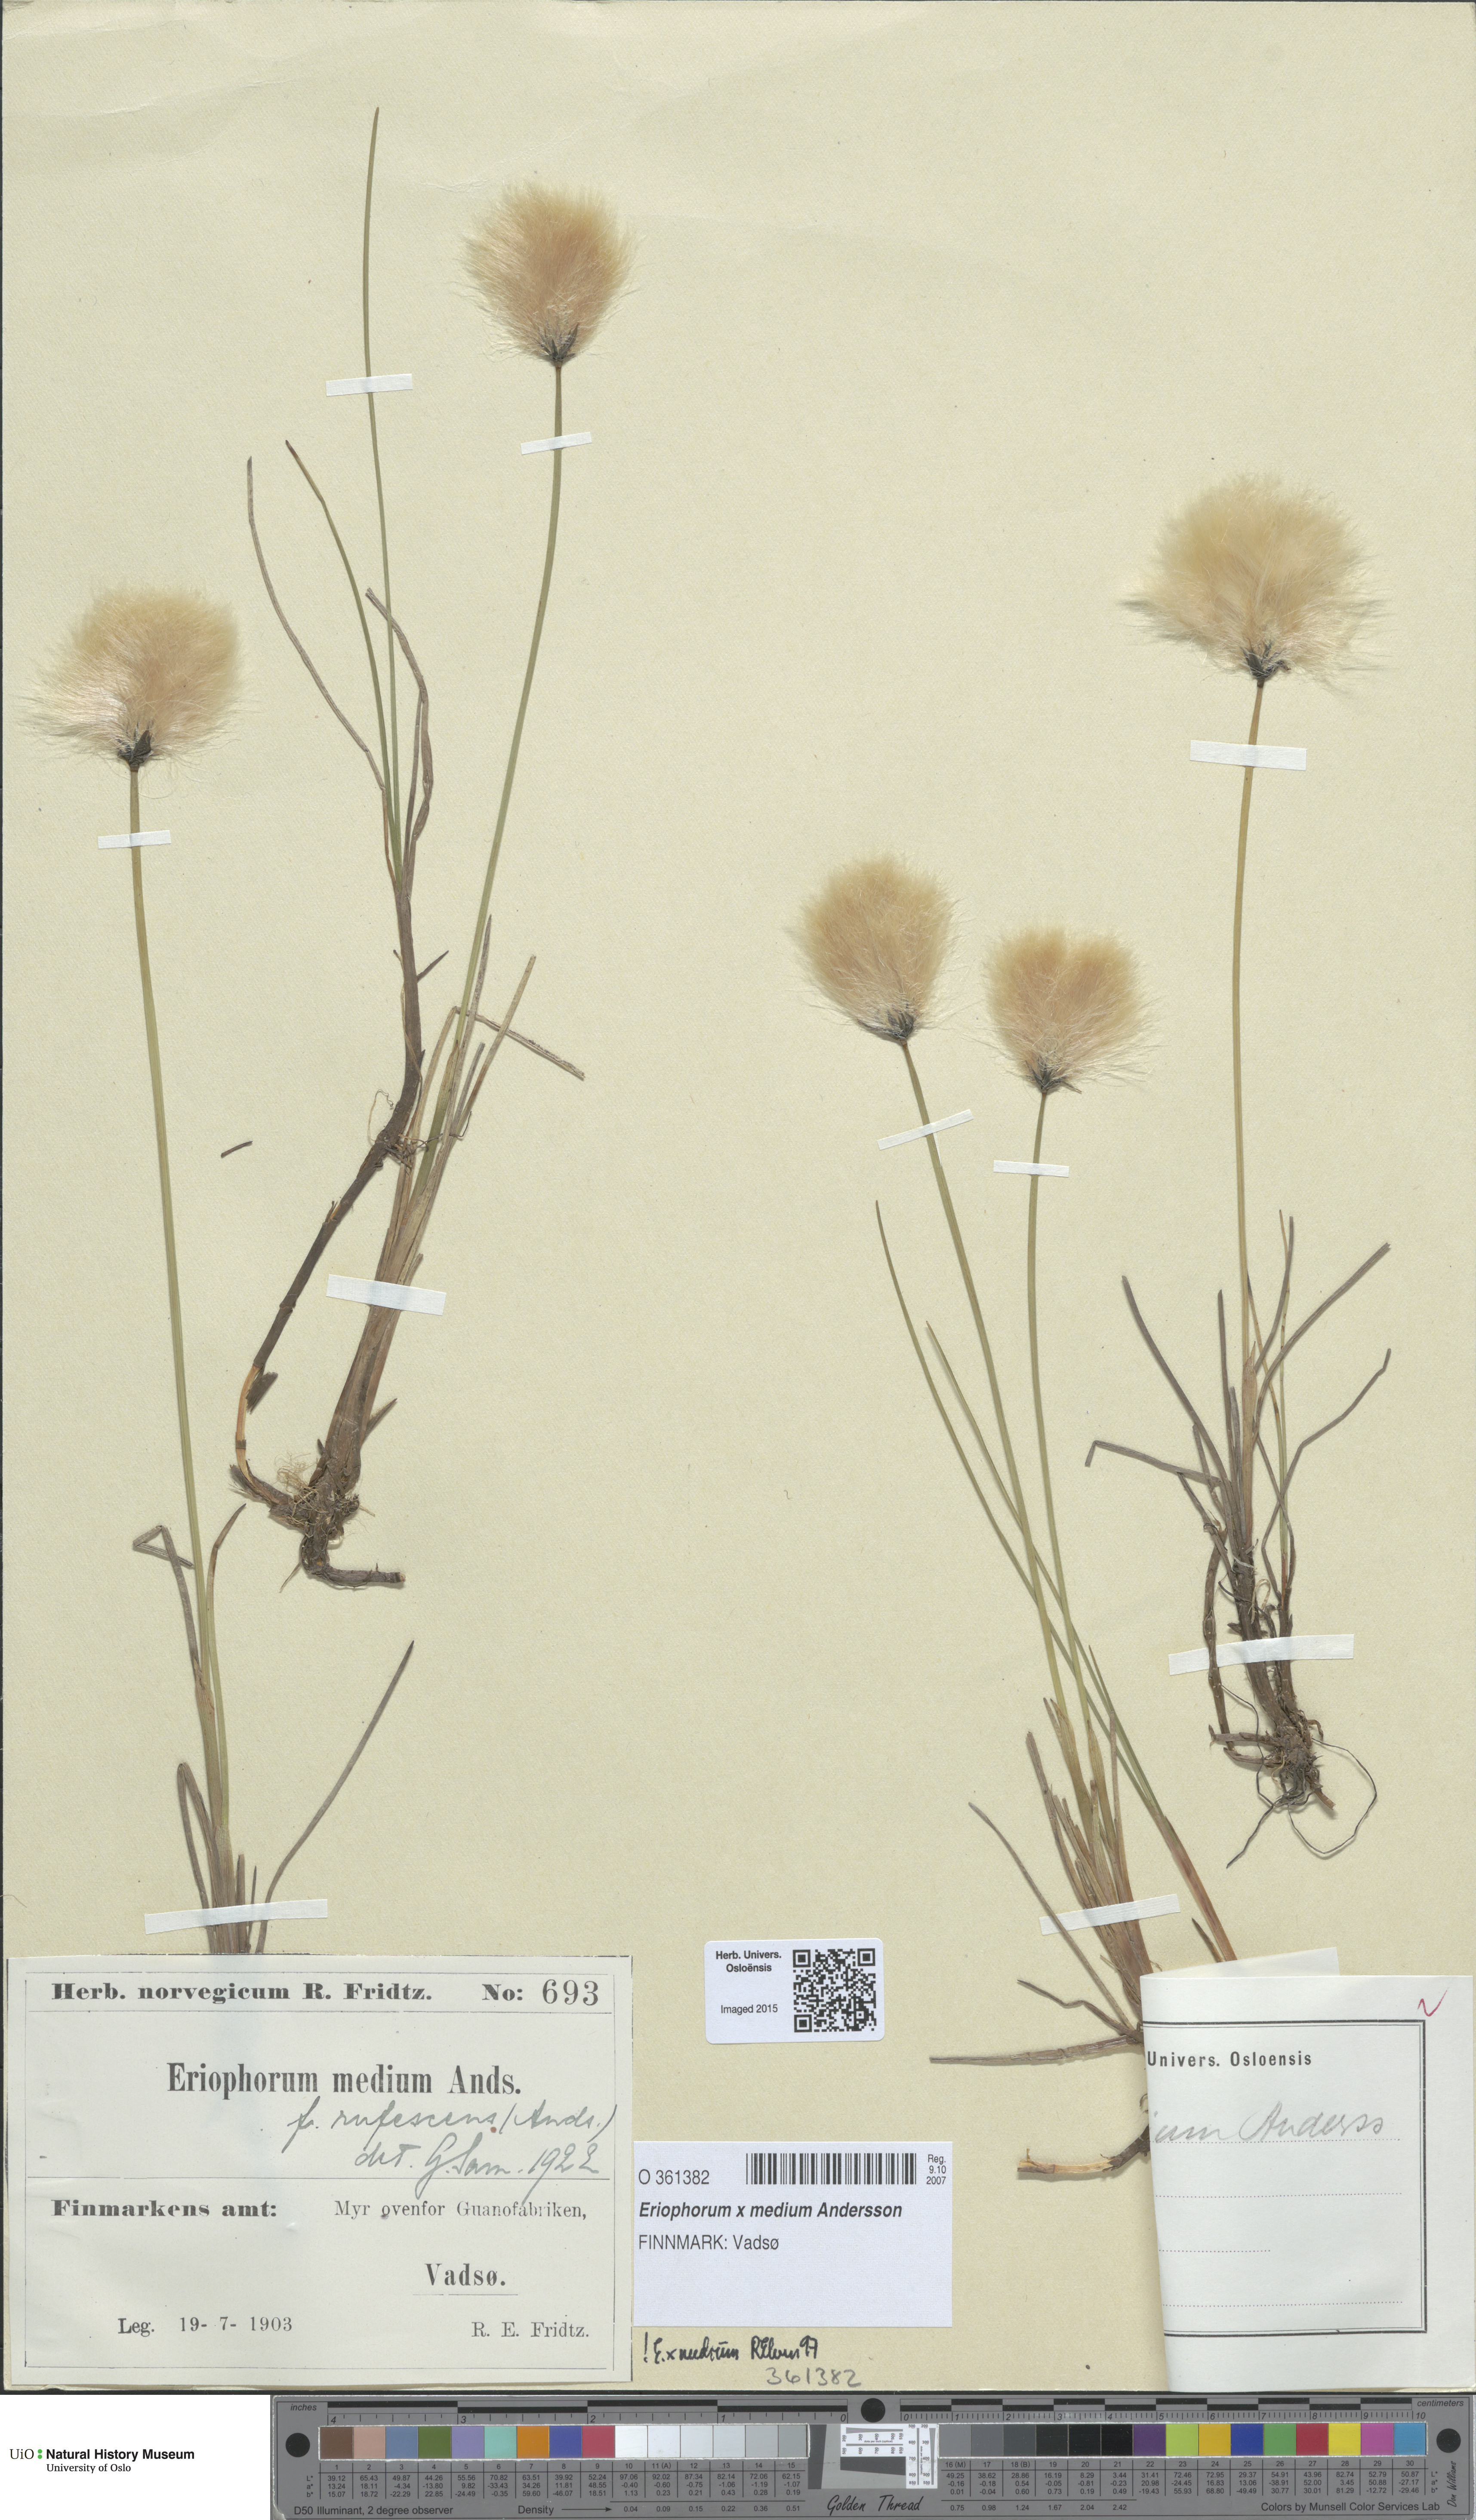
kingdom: Plantae
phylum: Tracheophyta
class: Liliopsida
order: Poales
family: Cyperaceae
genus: Eriophorum
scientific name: Eriophorum medium
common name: Intermediate cottongrass
